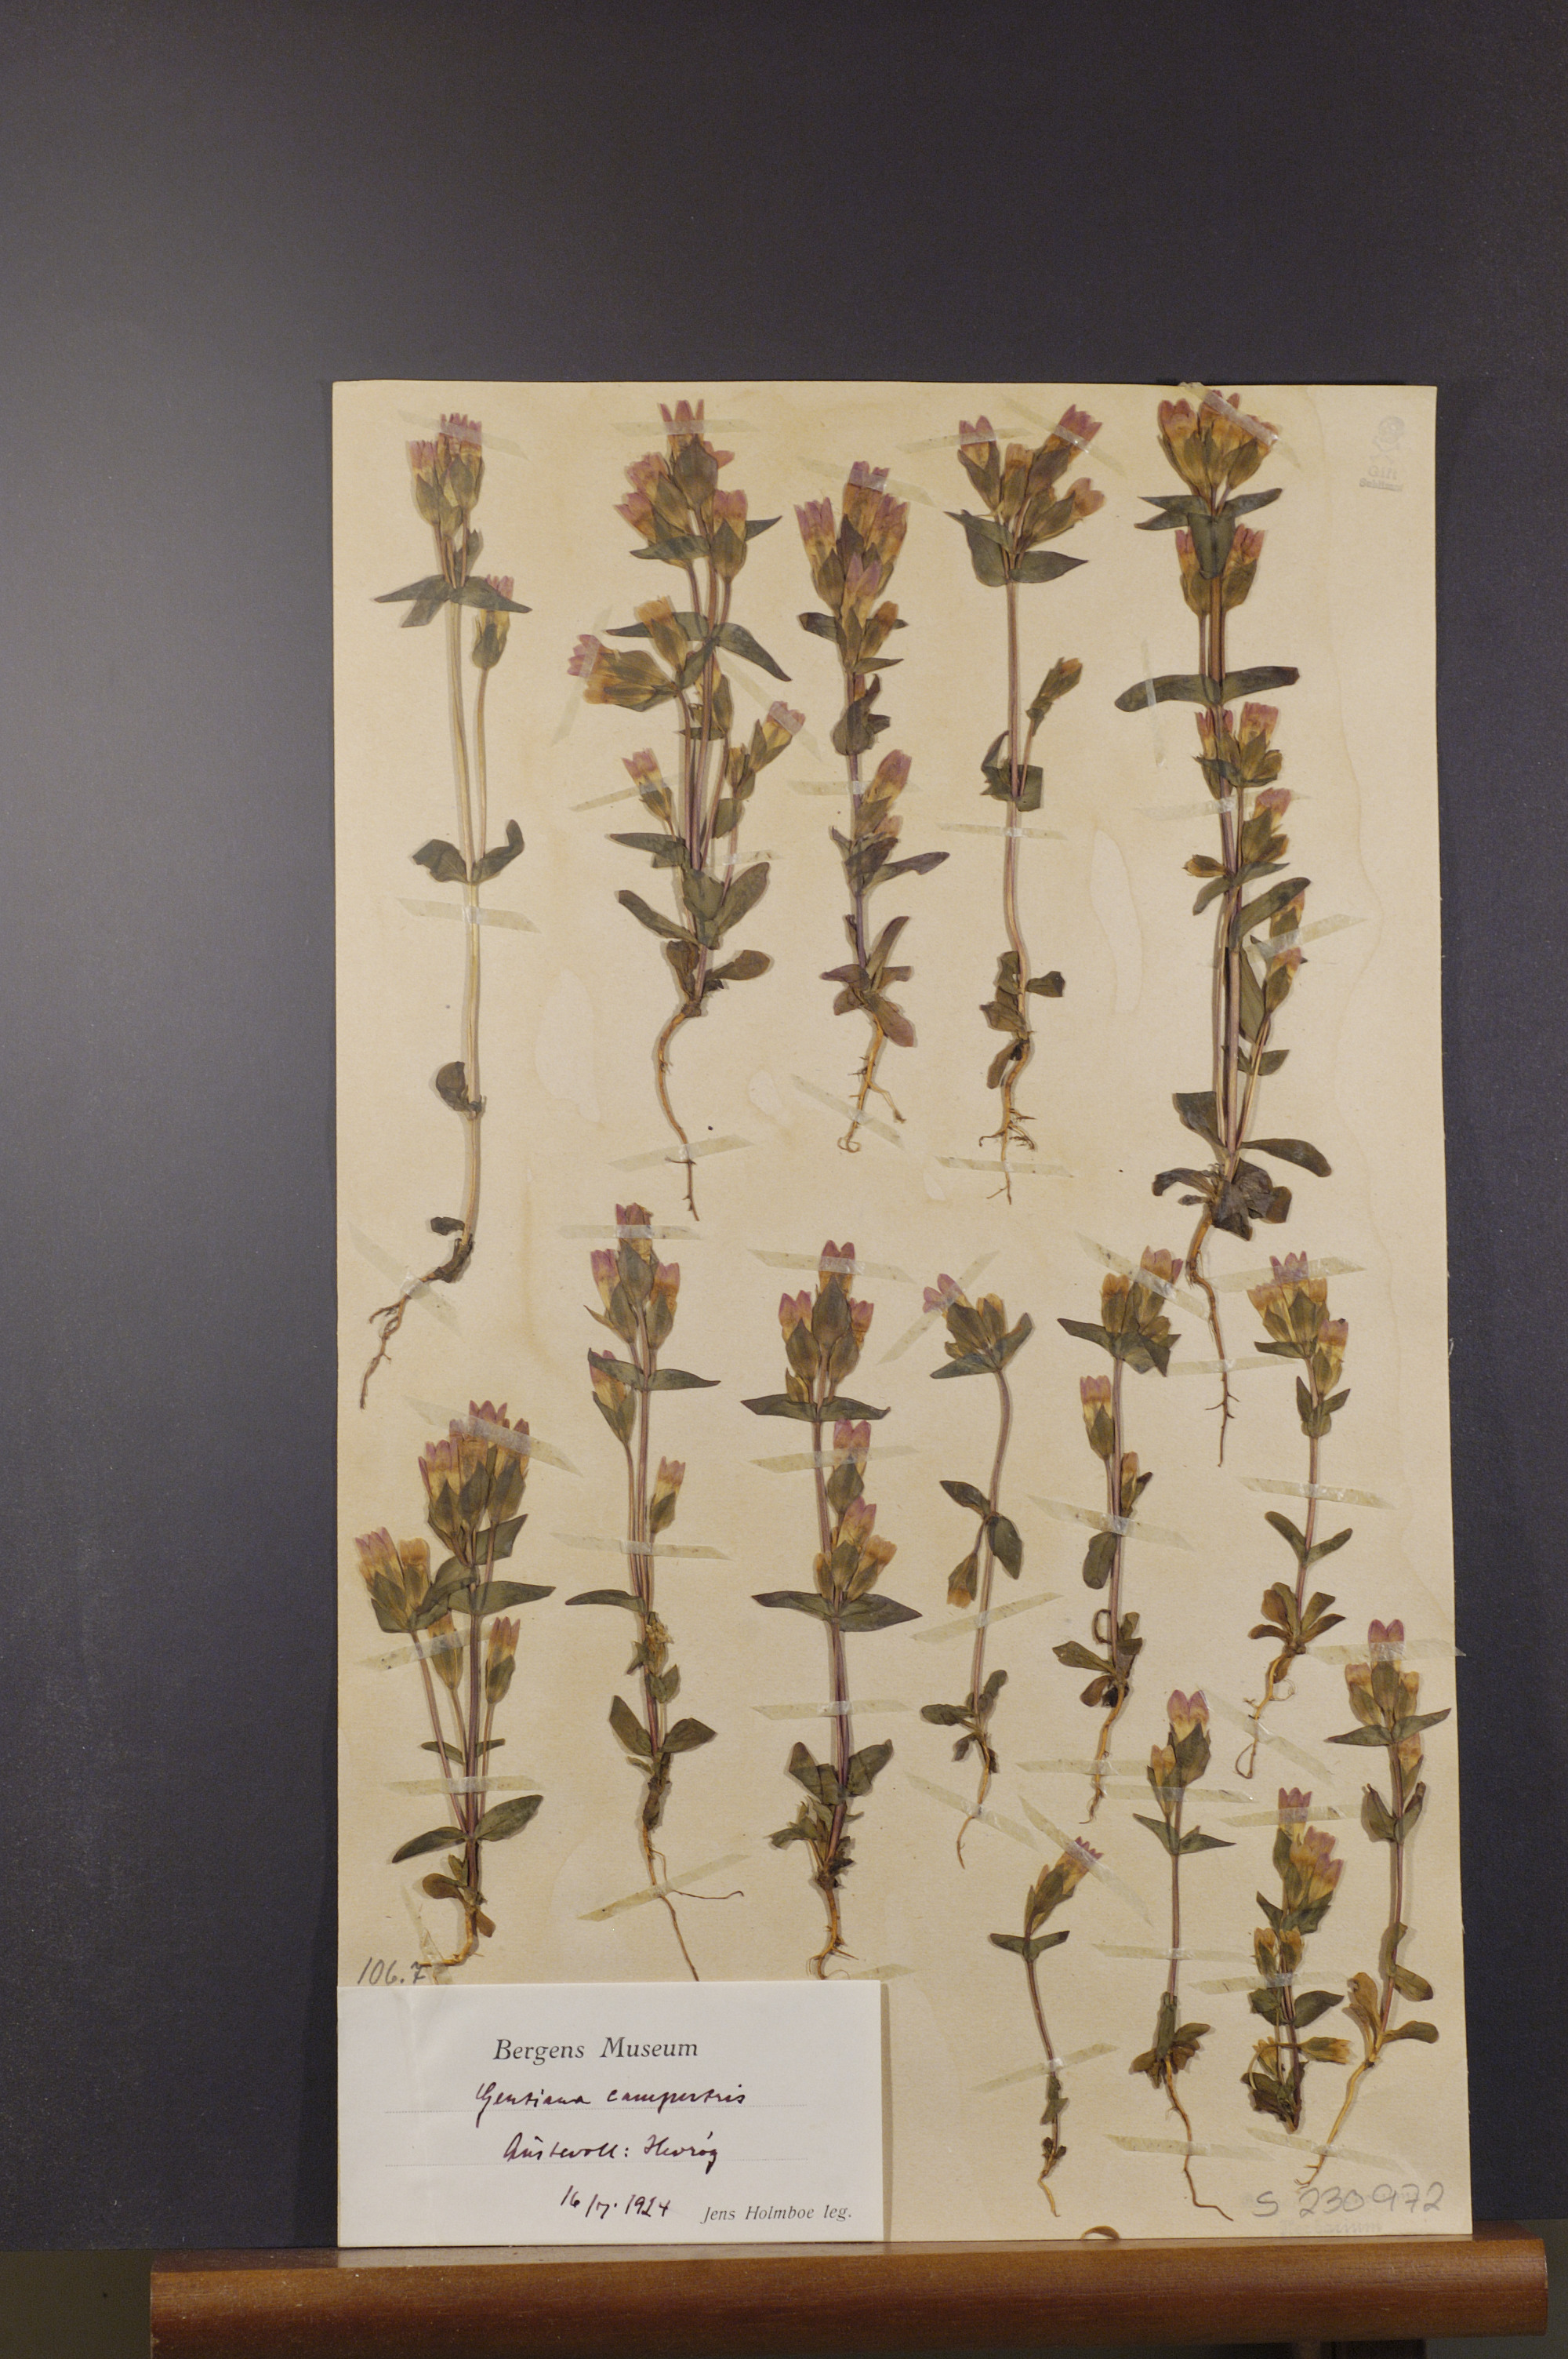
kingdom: Plantae
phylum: Tracheophyta
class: Magnoliopsida
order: Gentianales
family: Gentianaceae
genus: Gentianella
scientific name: Gentianella campestris
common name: Field gentian
